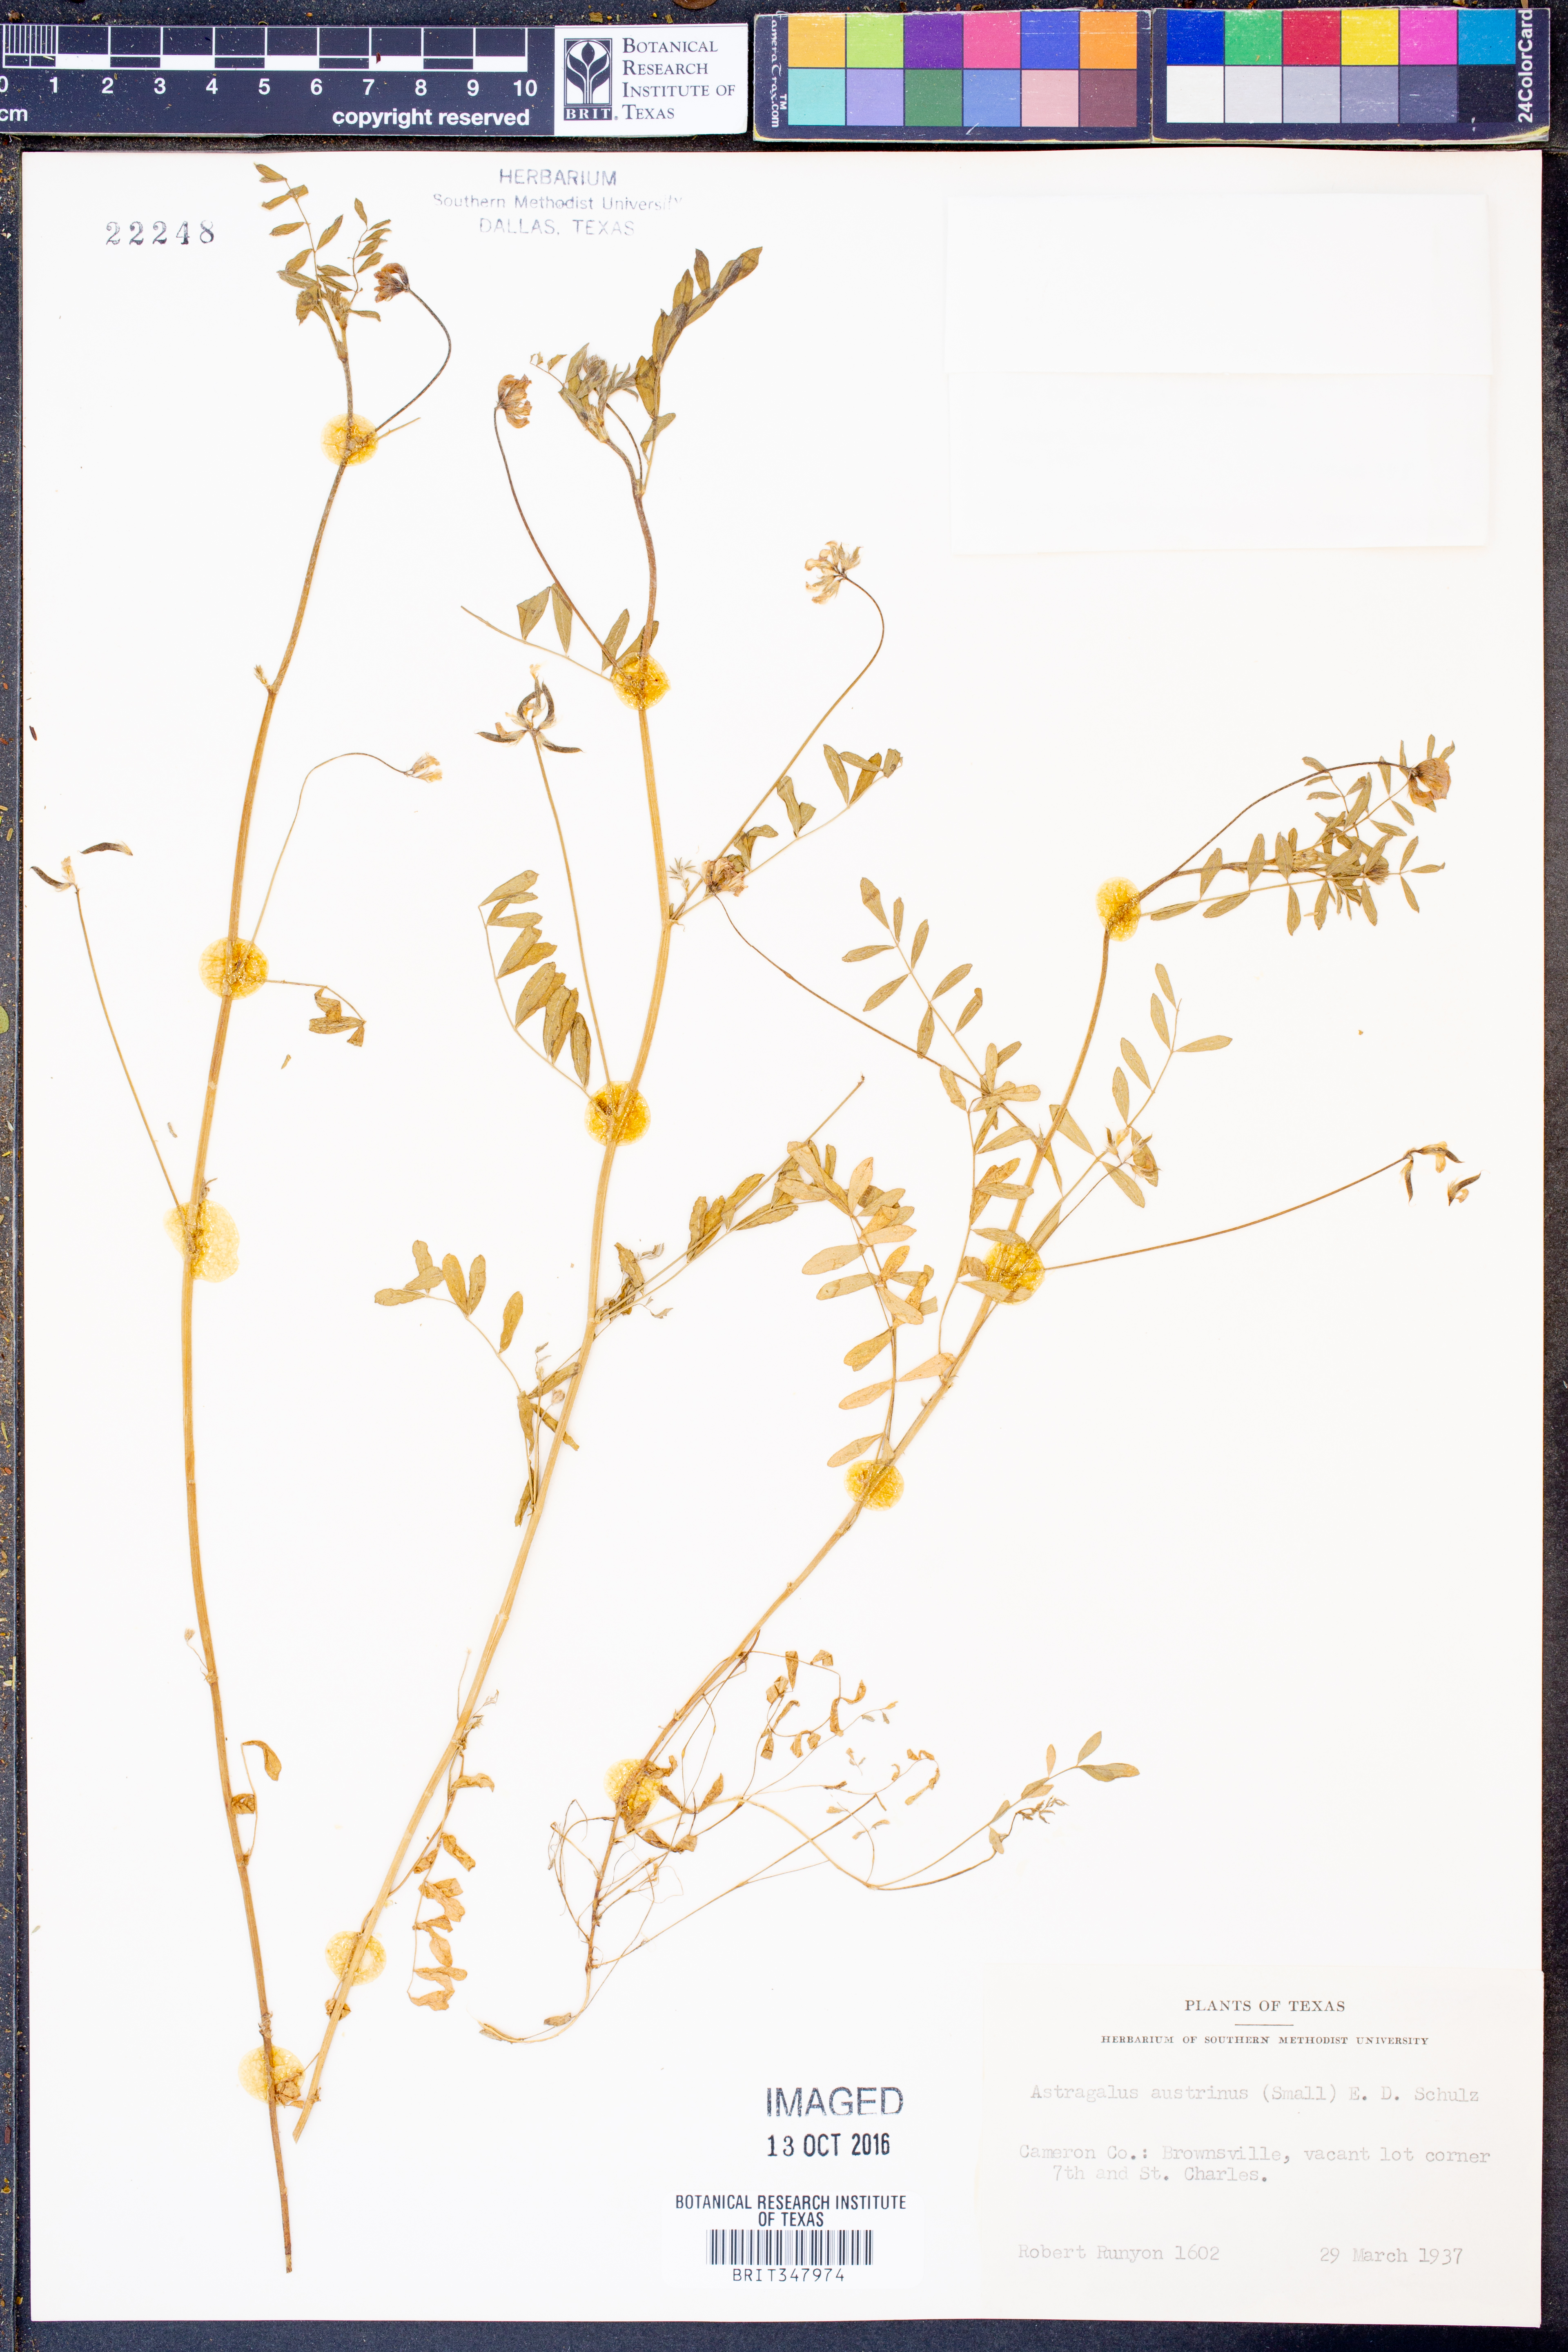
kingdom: Plantae
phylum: Tracheophyta
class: Magnoliopsida
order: Fabales
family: Fabaceae
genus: Astragalus
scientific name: Astragalus nuttallianus
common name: Smallflowered milkvetch
